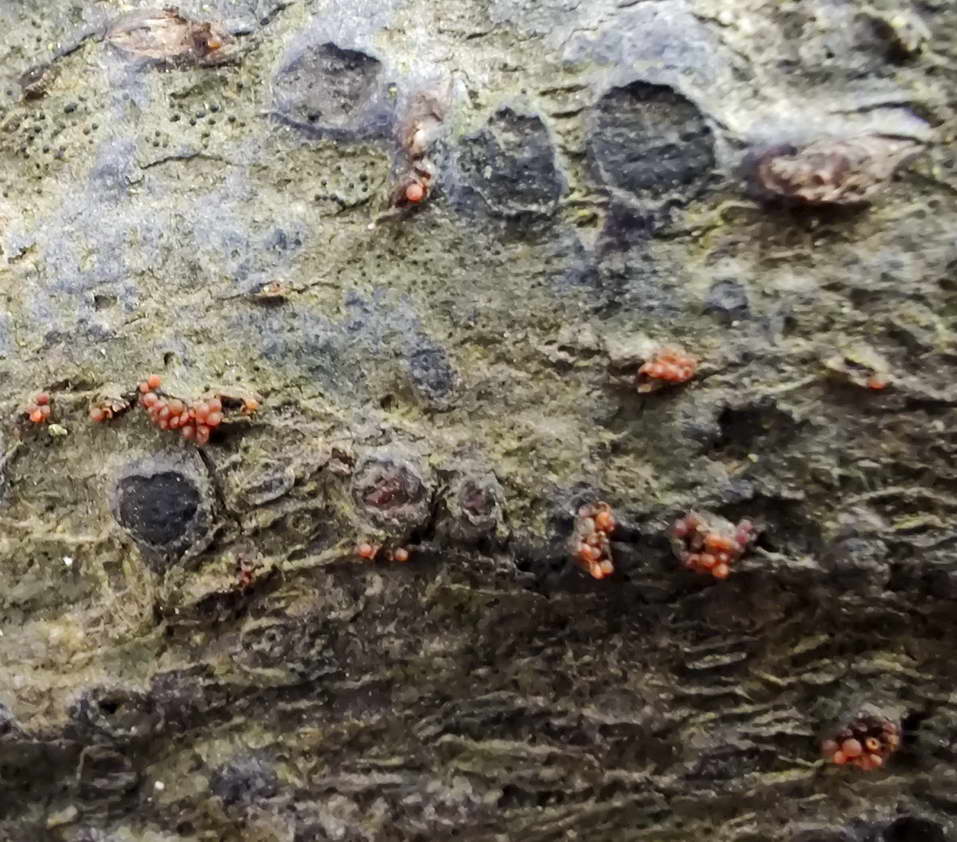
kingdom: Fungi
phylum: Ascomycota
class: Sordariomycetes
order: Hypocreales
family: Nectriaceae
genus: Neonectria
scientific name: Neonectria coccinea
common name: bøgebark-cinnobersvamp
